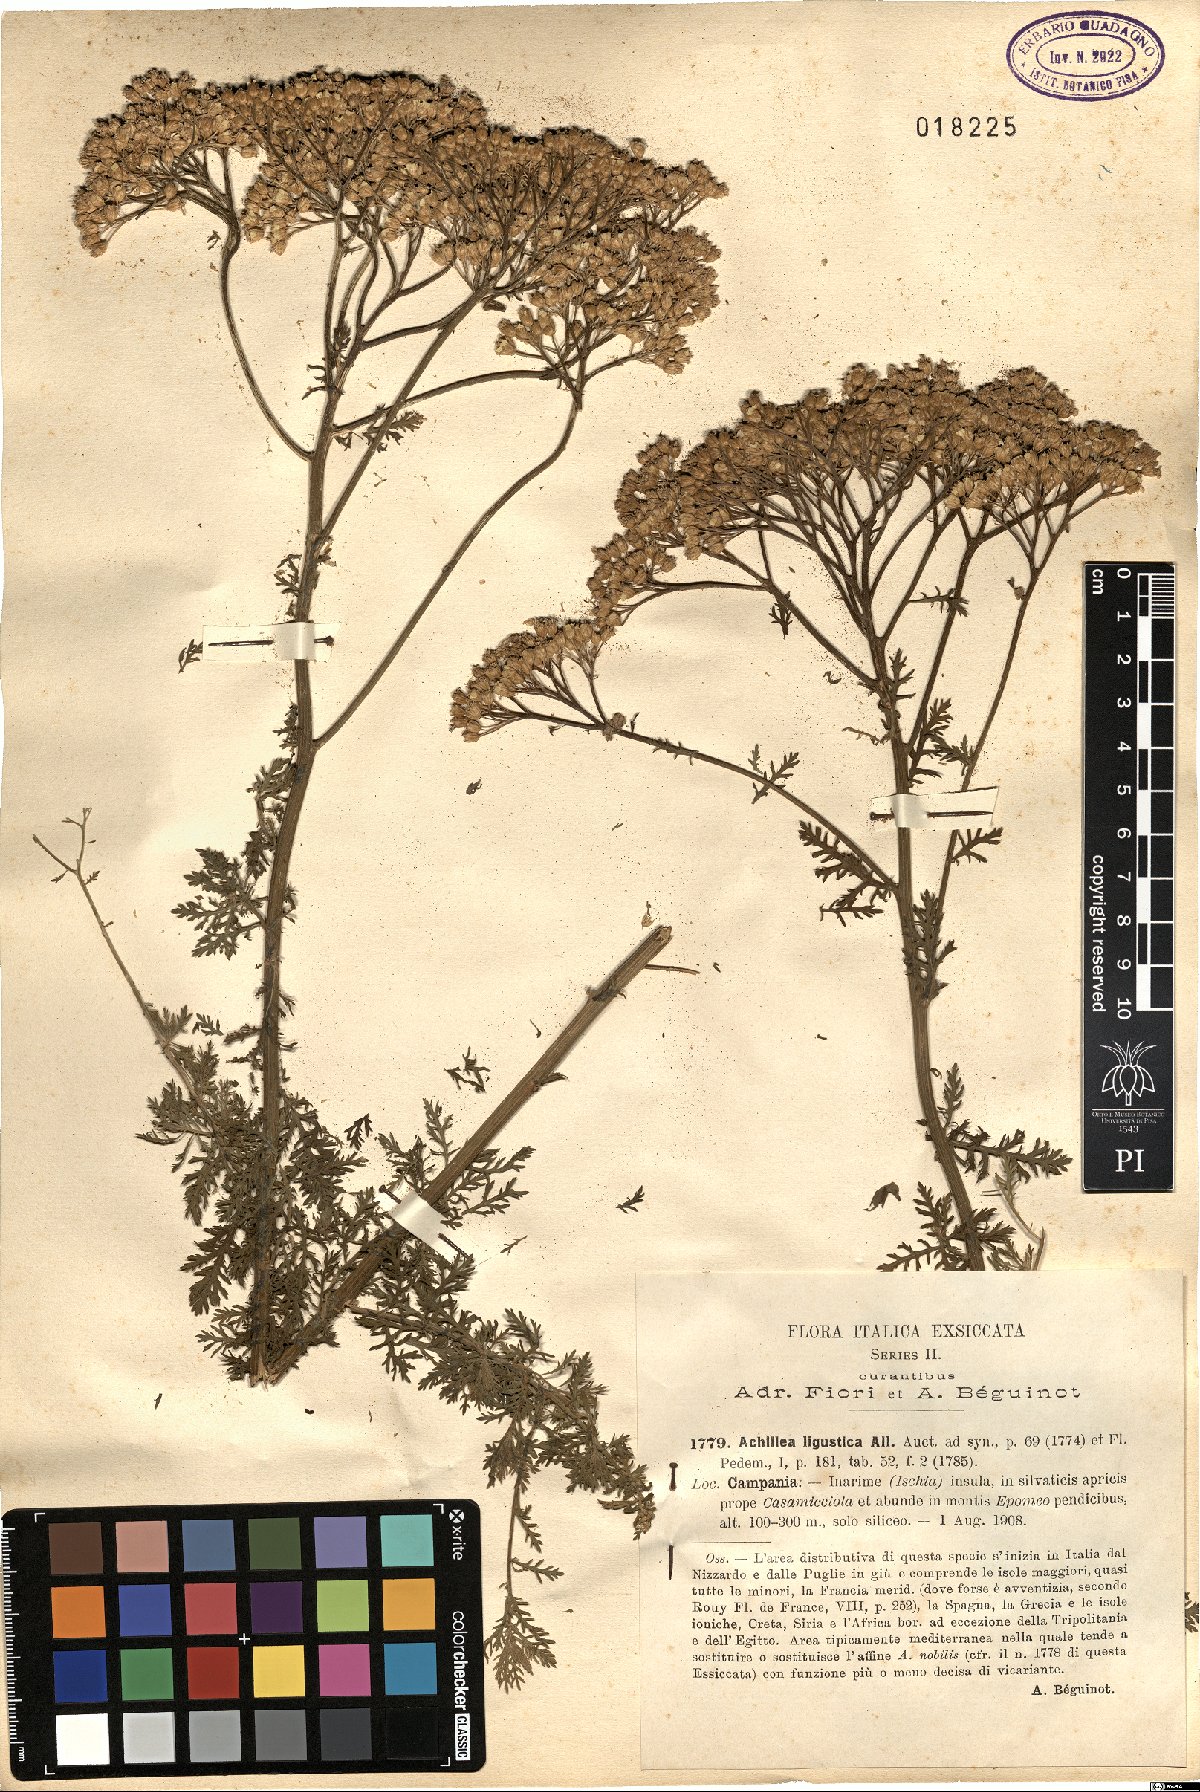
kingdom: Plantae
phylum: Tracheophyta
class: Magnoliopsida
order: Asterales
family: Asteraceae
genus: Achillea
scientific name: Achillea ligustica
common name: Southern yarrow
